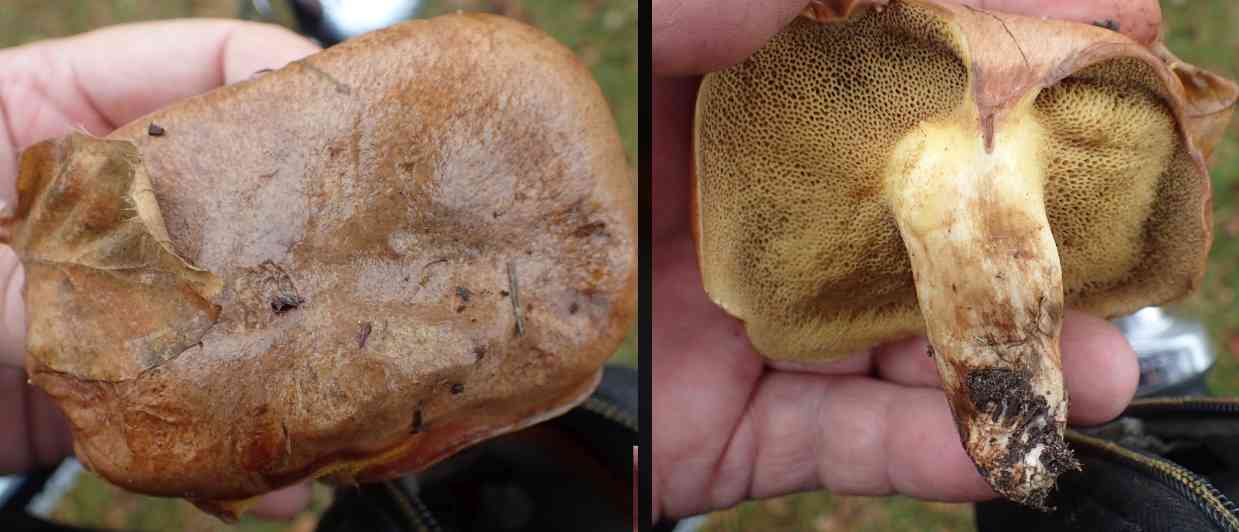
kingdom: Fungi
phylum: Basidiomycota
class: Agaricomycetes
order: Boletales
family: Suillaceae
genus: Suillus
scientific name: Suillus bovinus
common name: grovporet slimrørhat
